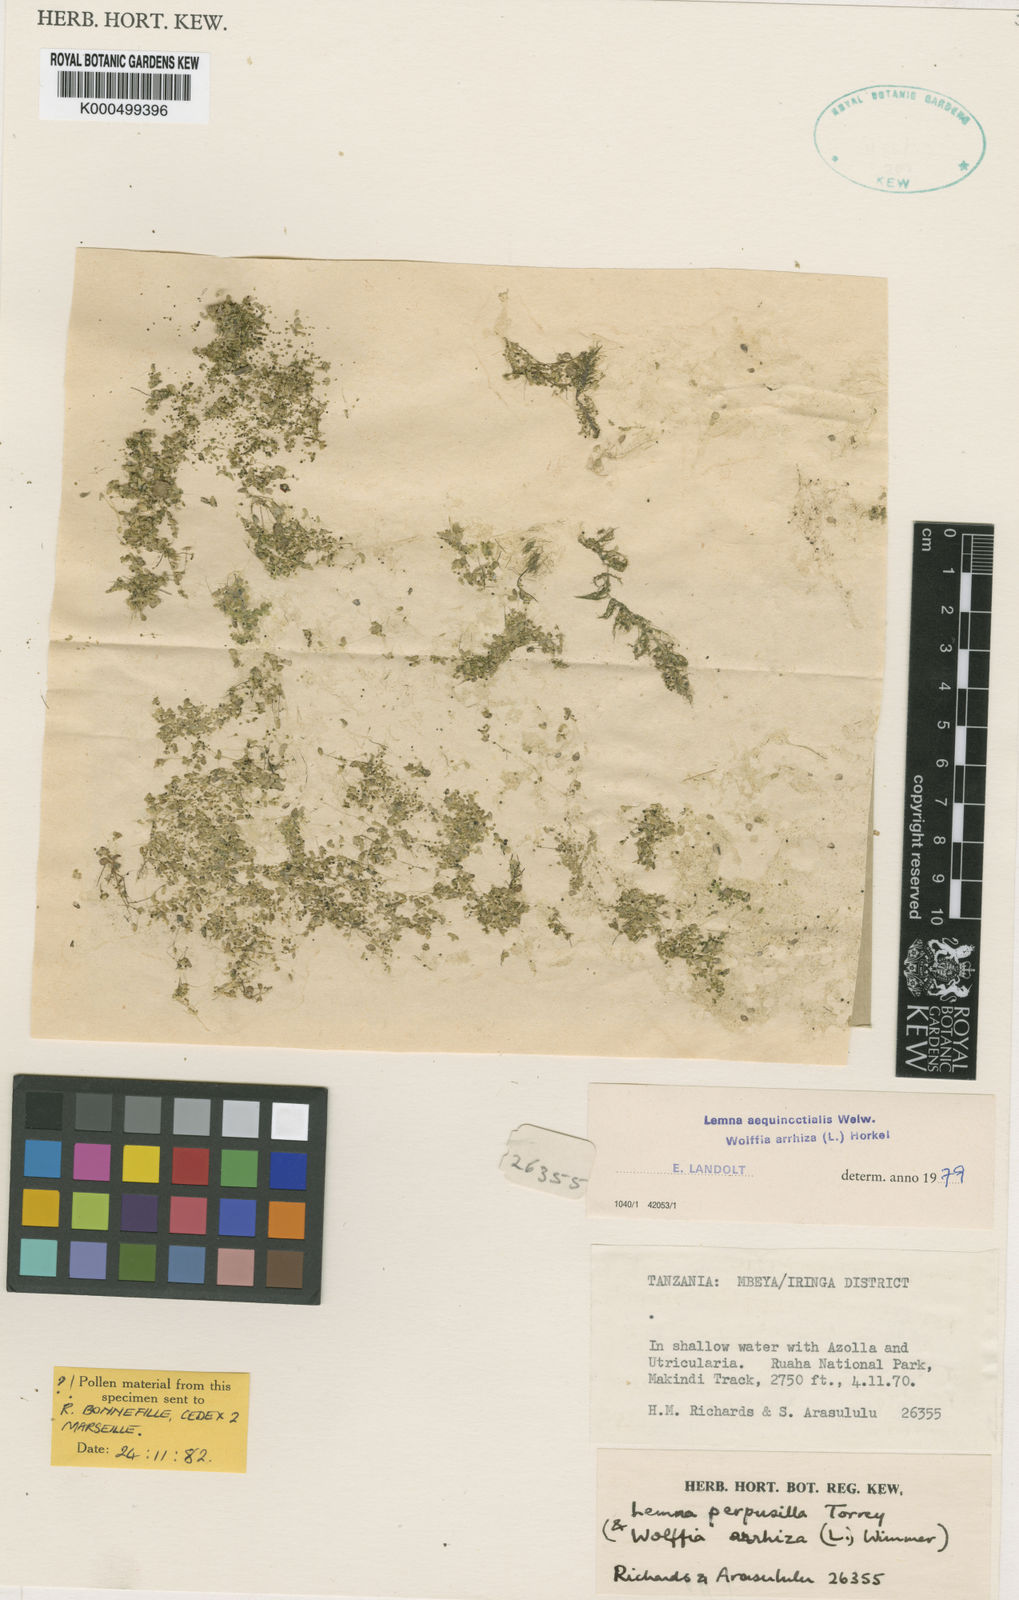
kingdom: Plantae
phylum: Tracheophyta
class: Liliopsida
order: Alismatales
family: Araceae
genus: Wolffia
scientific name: Wolffia
